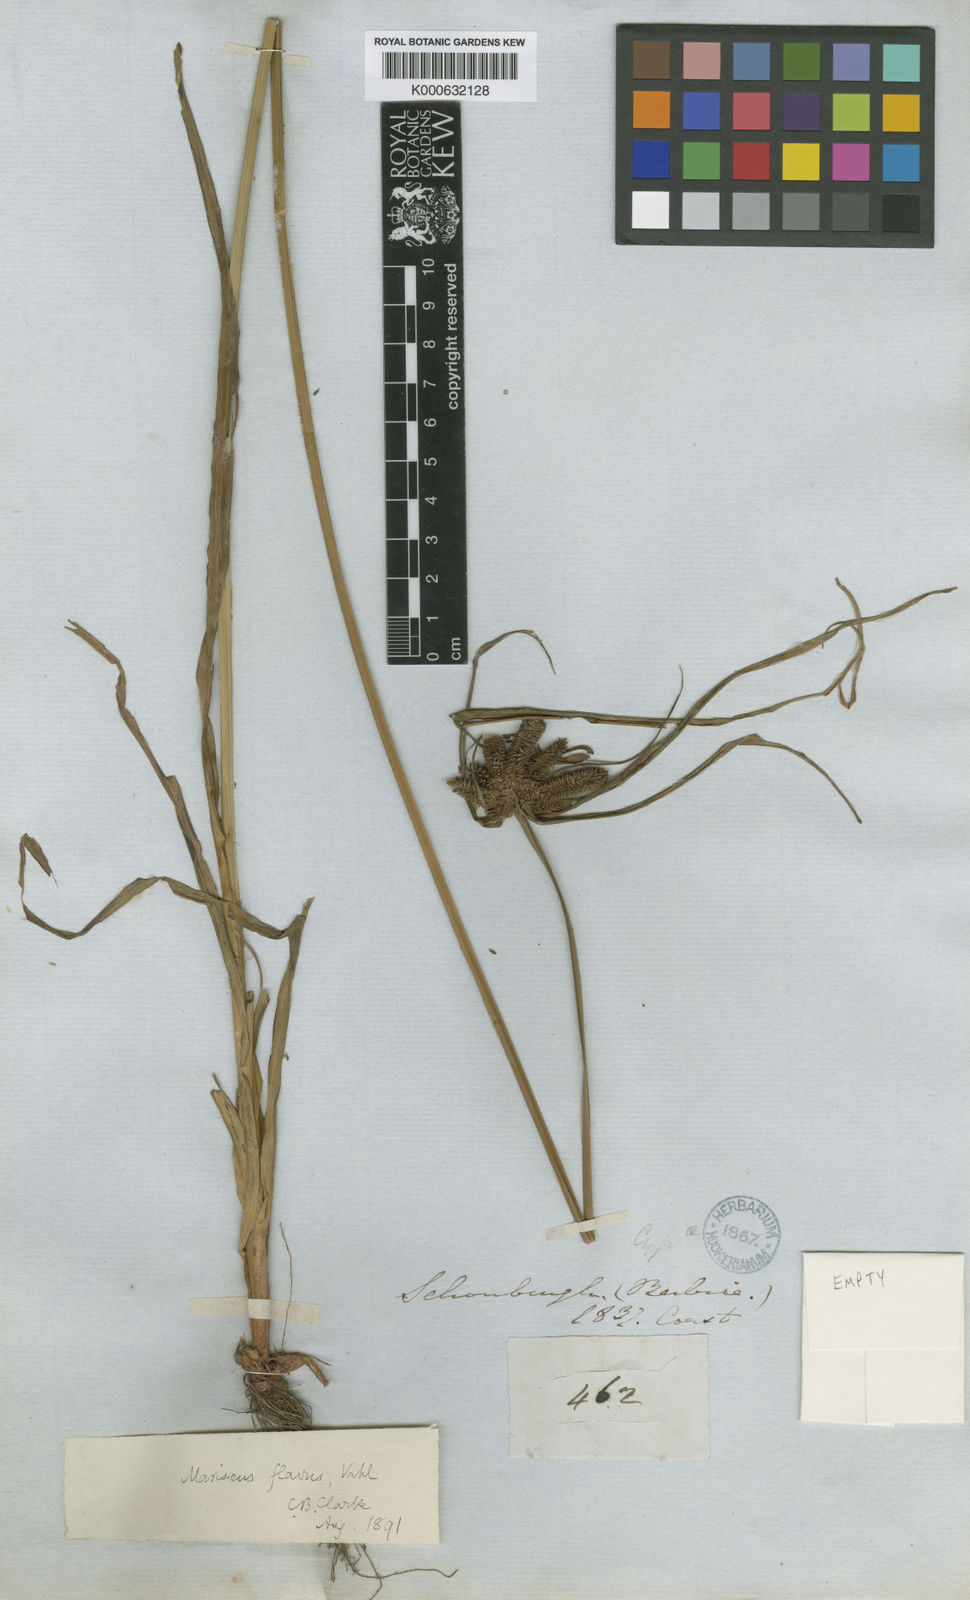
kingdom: Plantae
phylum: Tracheophyta
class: Liliopsida
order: Poales
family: Cyperaceae
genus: Cyperus
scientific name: Cyperus aggregatus
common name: Inflatedscale flatsedge
